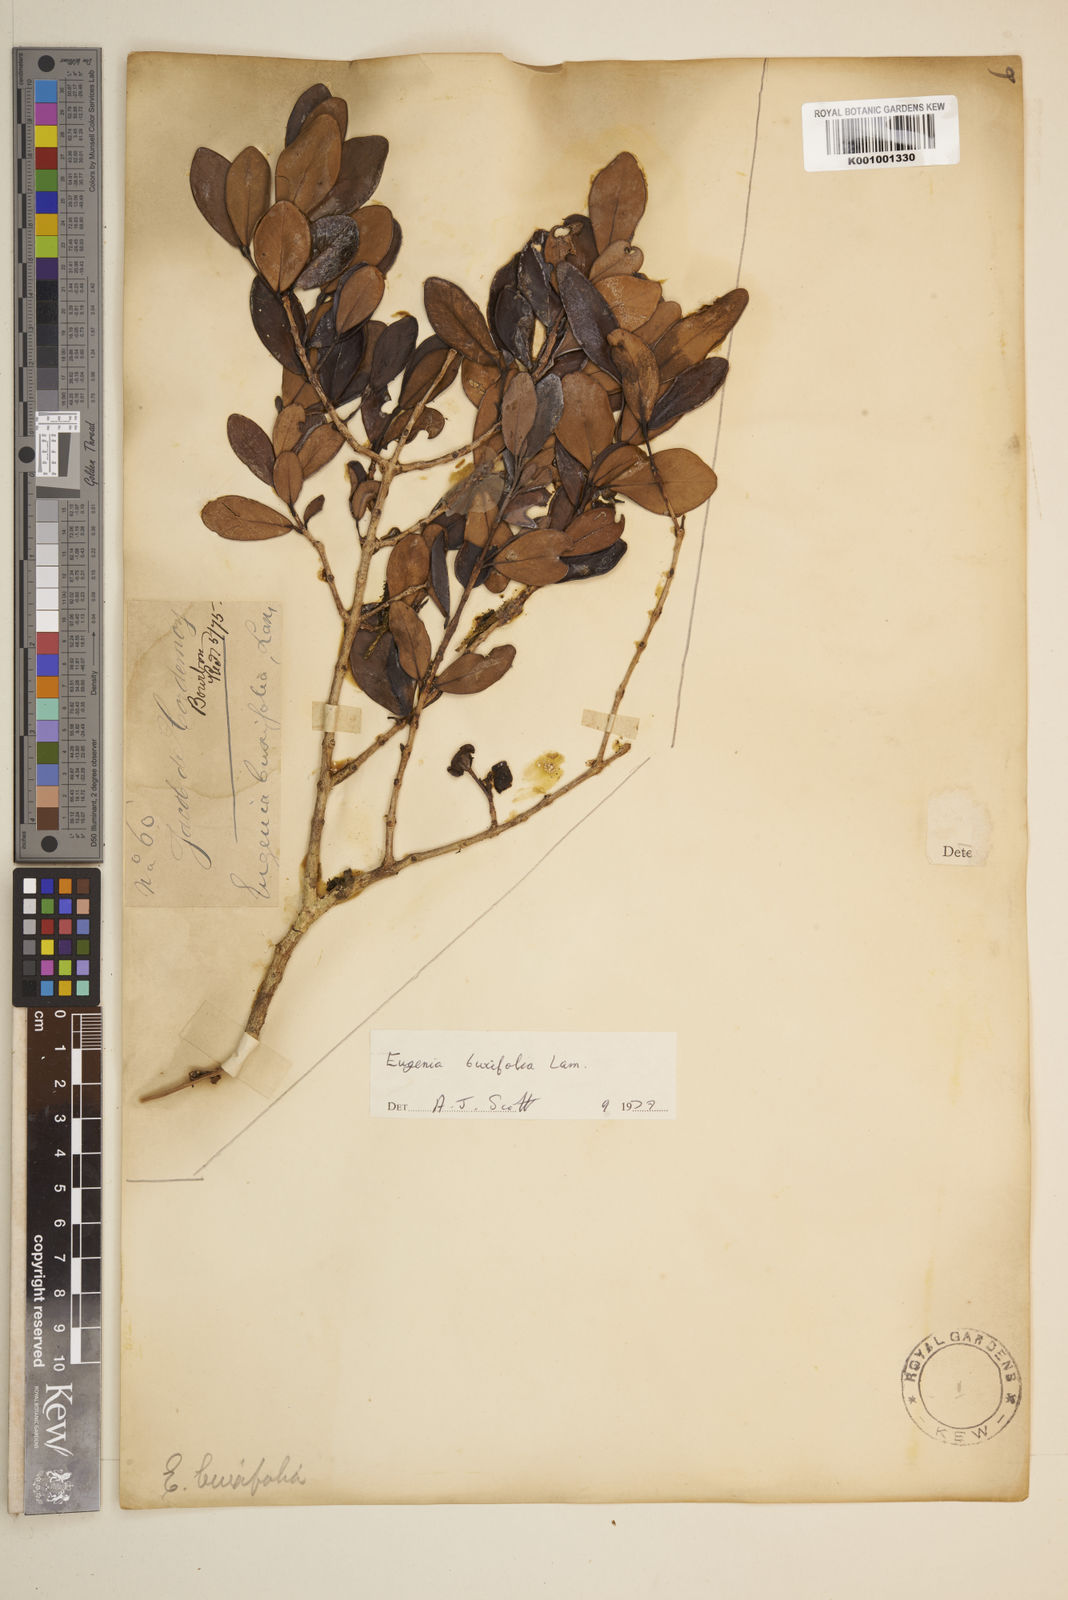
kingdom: Plantae
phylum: Tracheophyta
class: Magnoliopsida
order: Myrtales
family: Myrtaceae
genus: Eugenia
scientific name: Eugenia buxifolia
